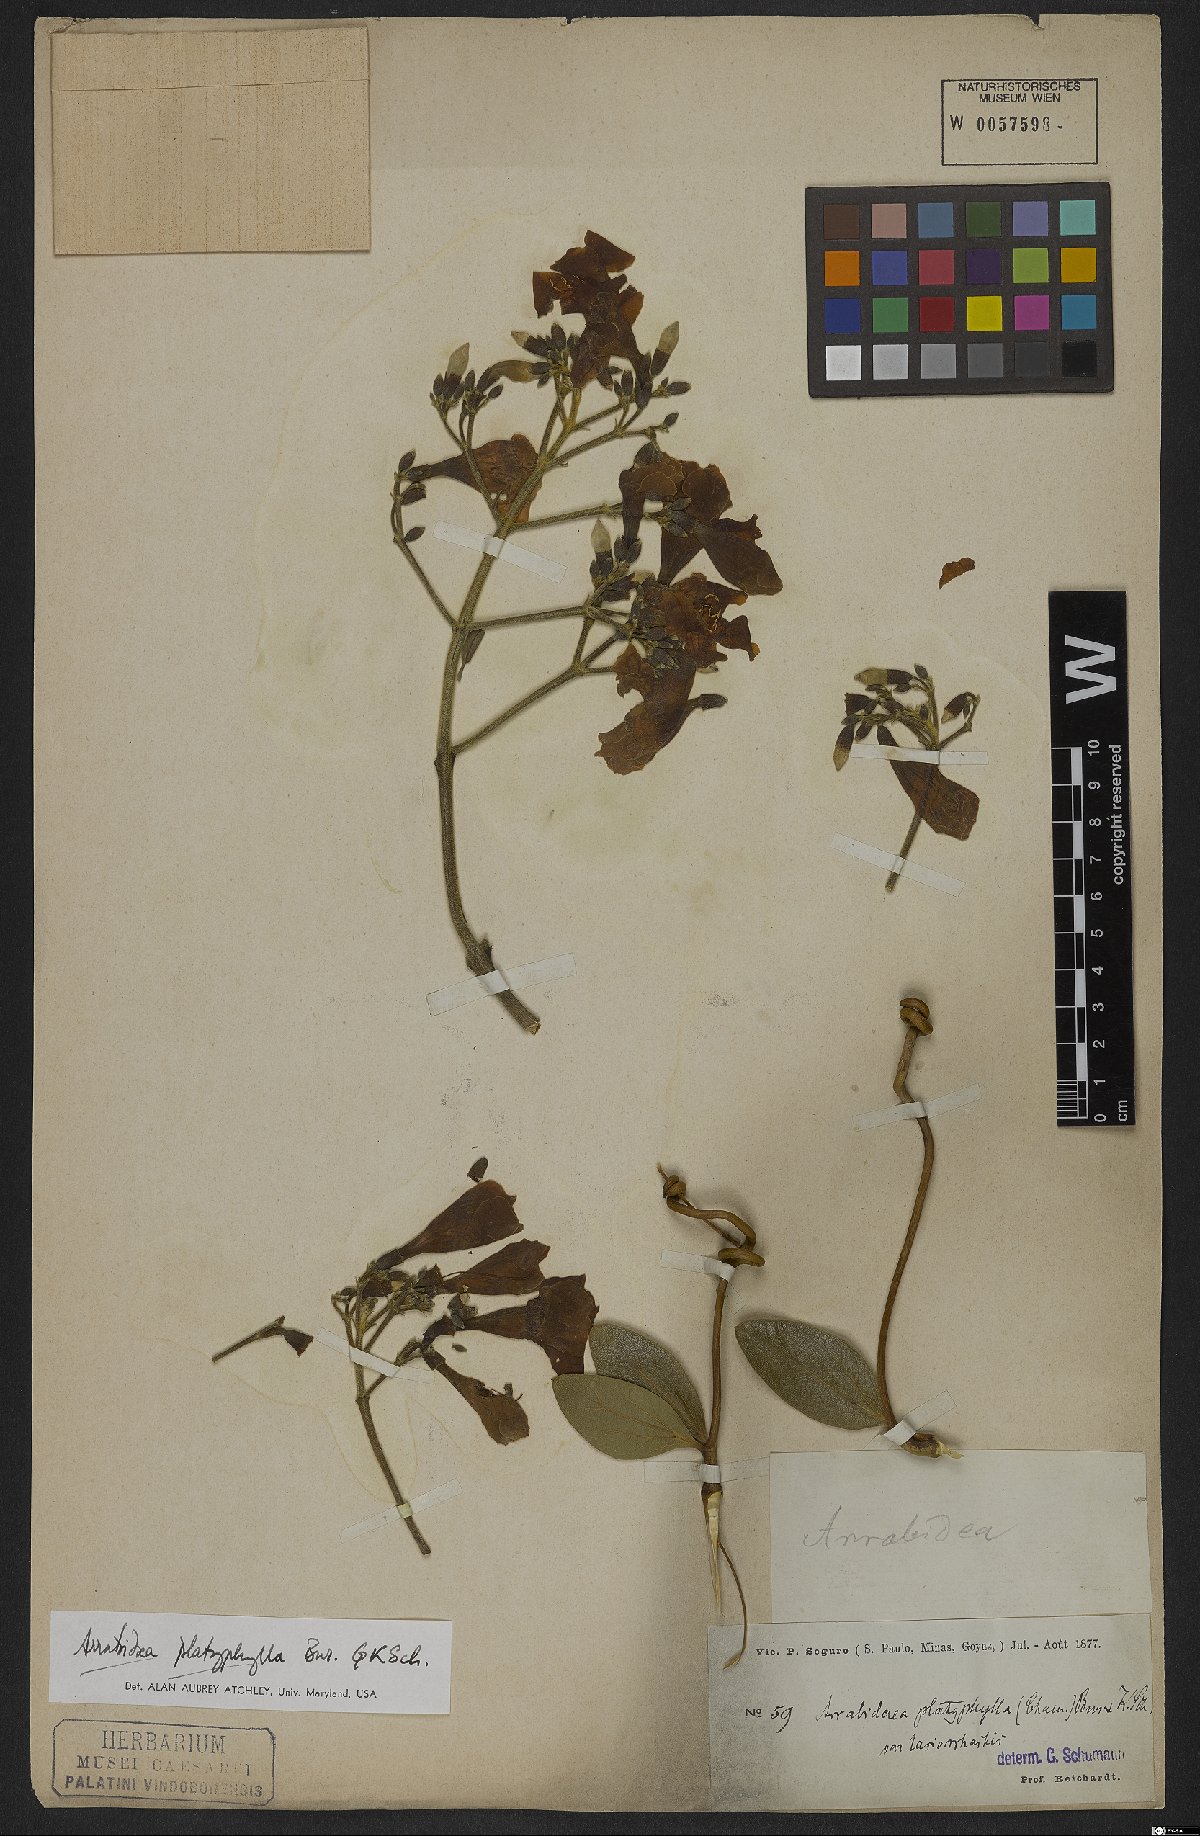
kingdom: Plantae
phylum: Tracheophyta
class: Magnoliopsida
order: Lamiales
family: Bignoniaceae
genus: Fridericia
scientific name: Fridericia platyphylla
